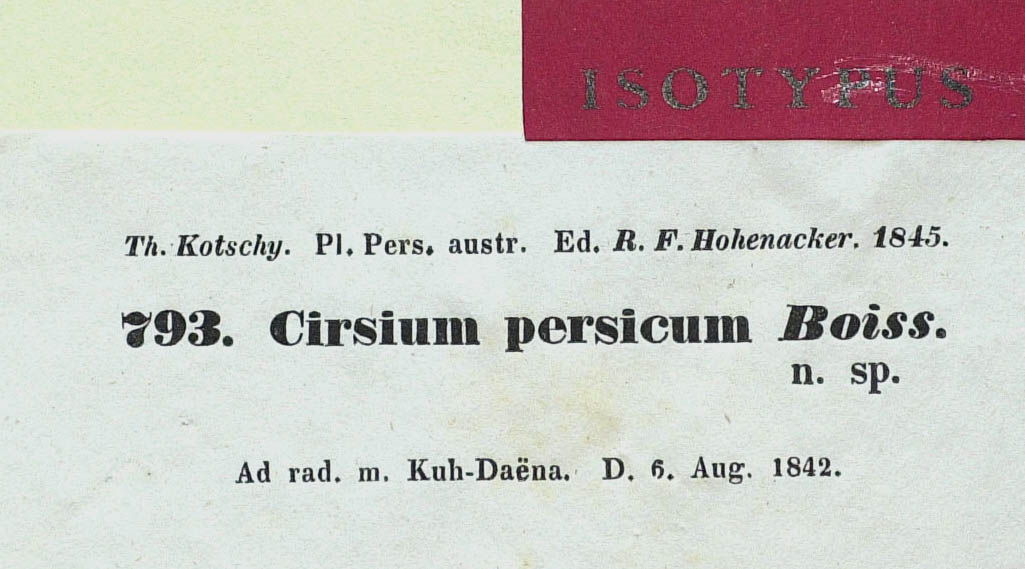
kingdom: Plantae
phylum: Tracheophyta
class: Magnoliopsida
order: Asterales
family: Asteraceae
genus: Lophiolepis
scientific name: Lophiolepis bracteosa
